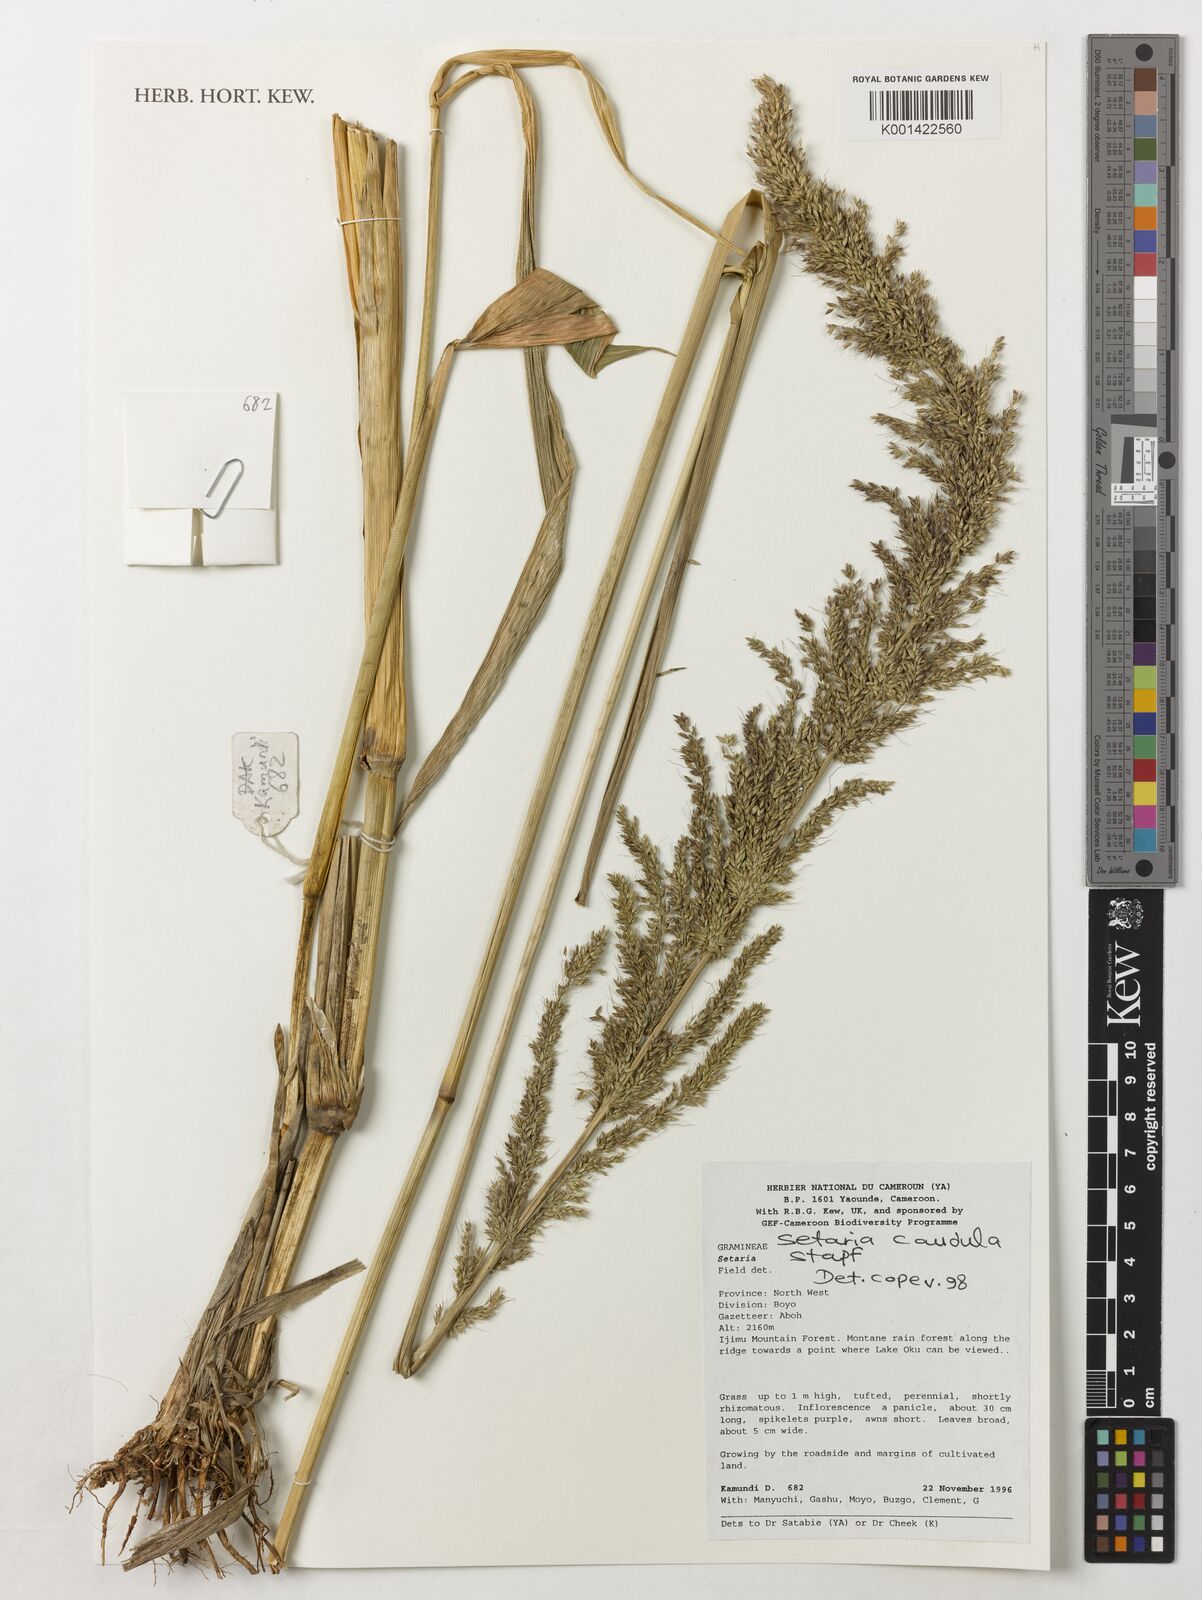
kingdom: Plantae
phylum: Tracheophyta
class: Liliopsida
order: Poales
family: Poaceae
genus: Setaria
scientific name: Setaria poiretiana
